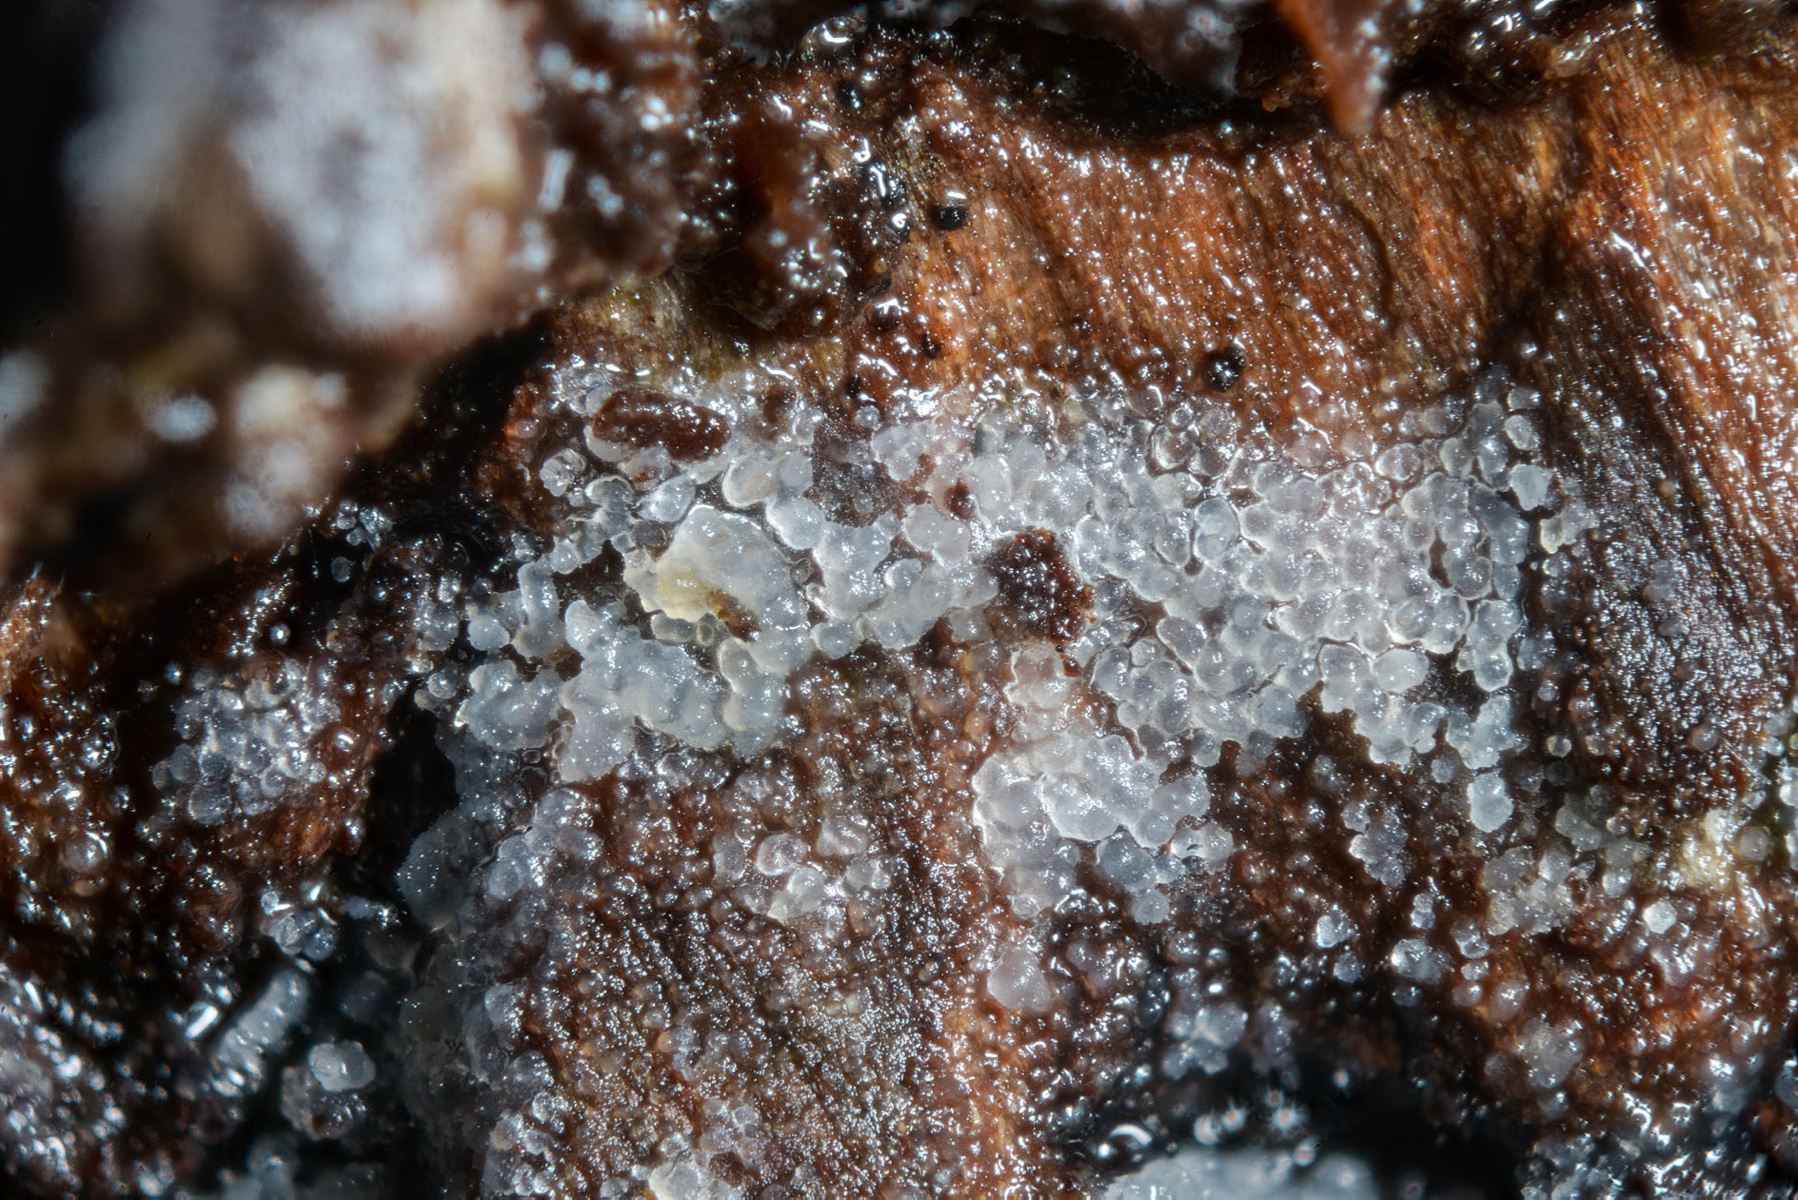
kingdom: Fungi
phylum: Basidiomycota
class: Agaricomycetes
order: Auriculariales
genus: Stypella
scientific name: Stypella crystallina
